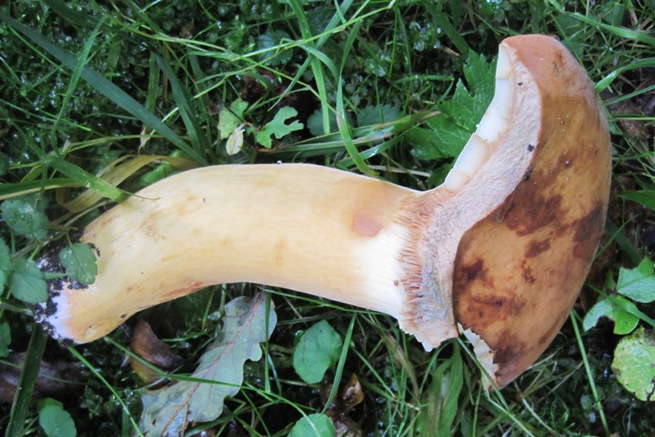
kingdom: Fungi
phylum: Basidiomycota
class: Agaricomycetes
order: Russulales
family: Russulaceae
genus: Lactifluus
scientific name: Lactifluus volemus
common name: spiselig mælkehat
